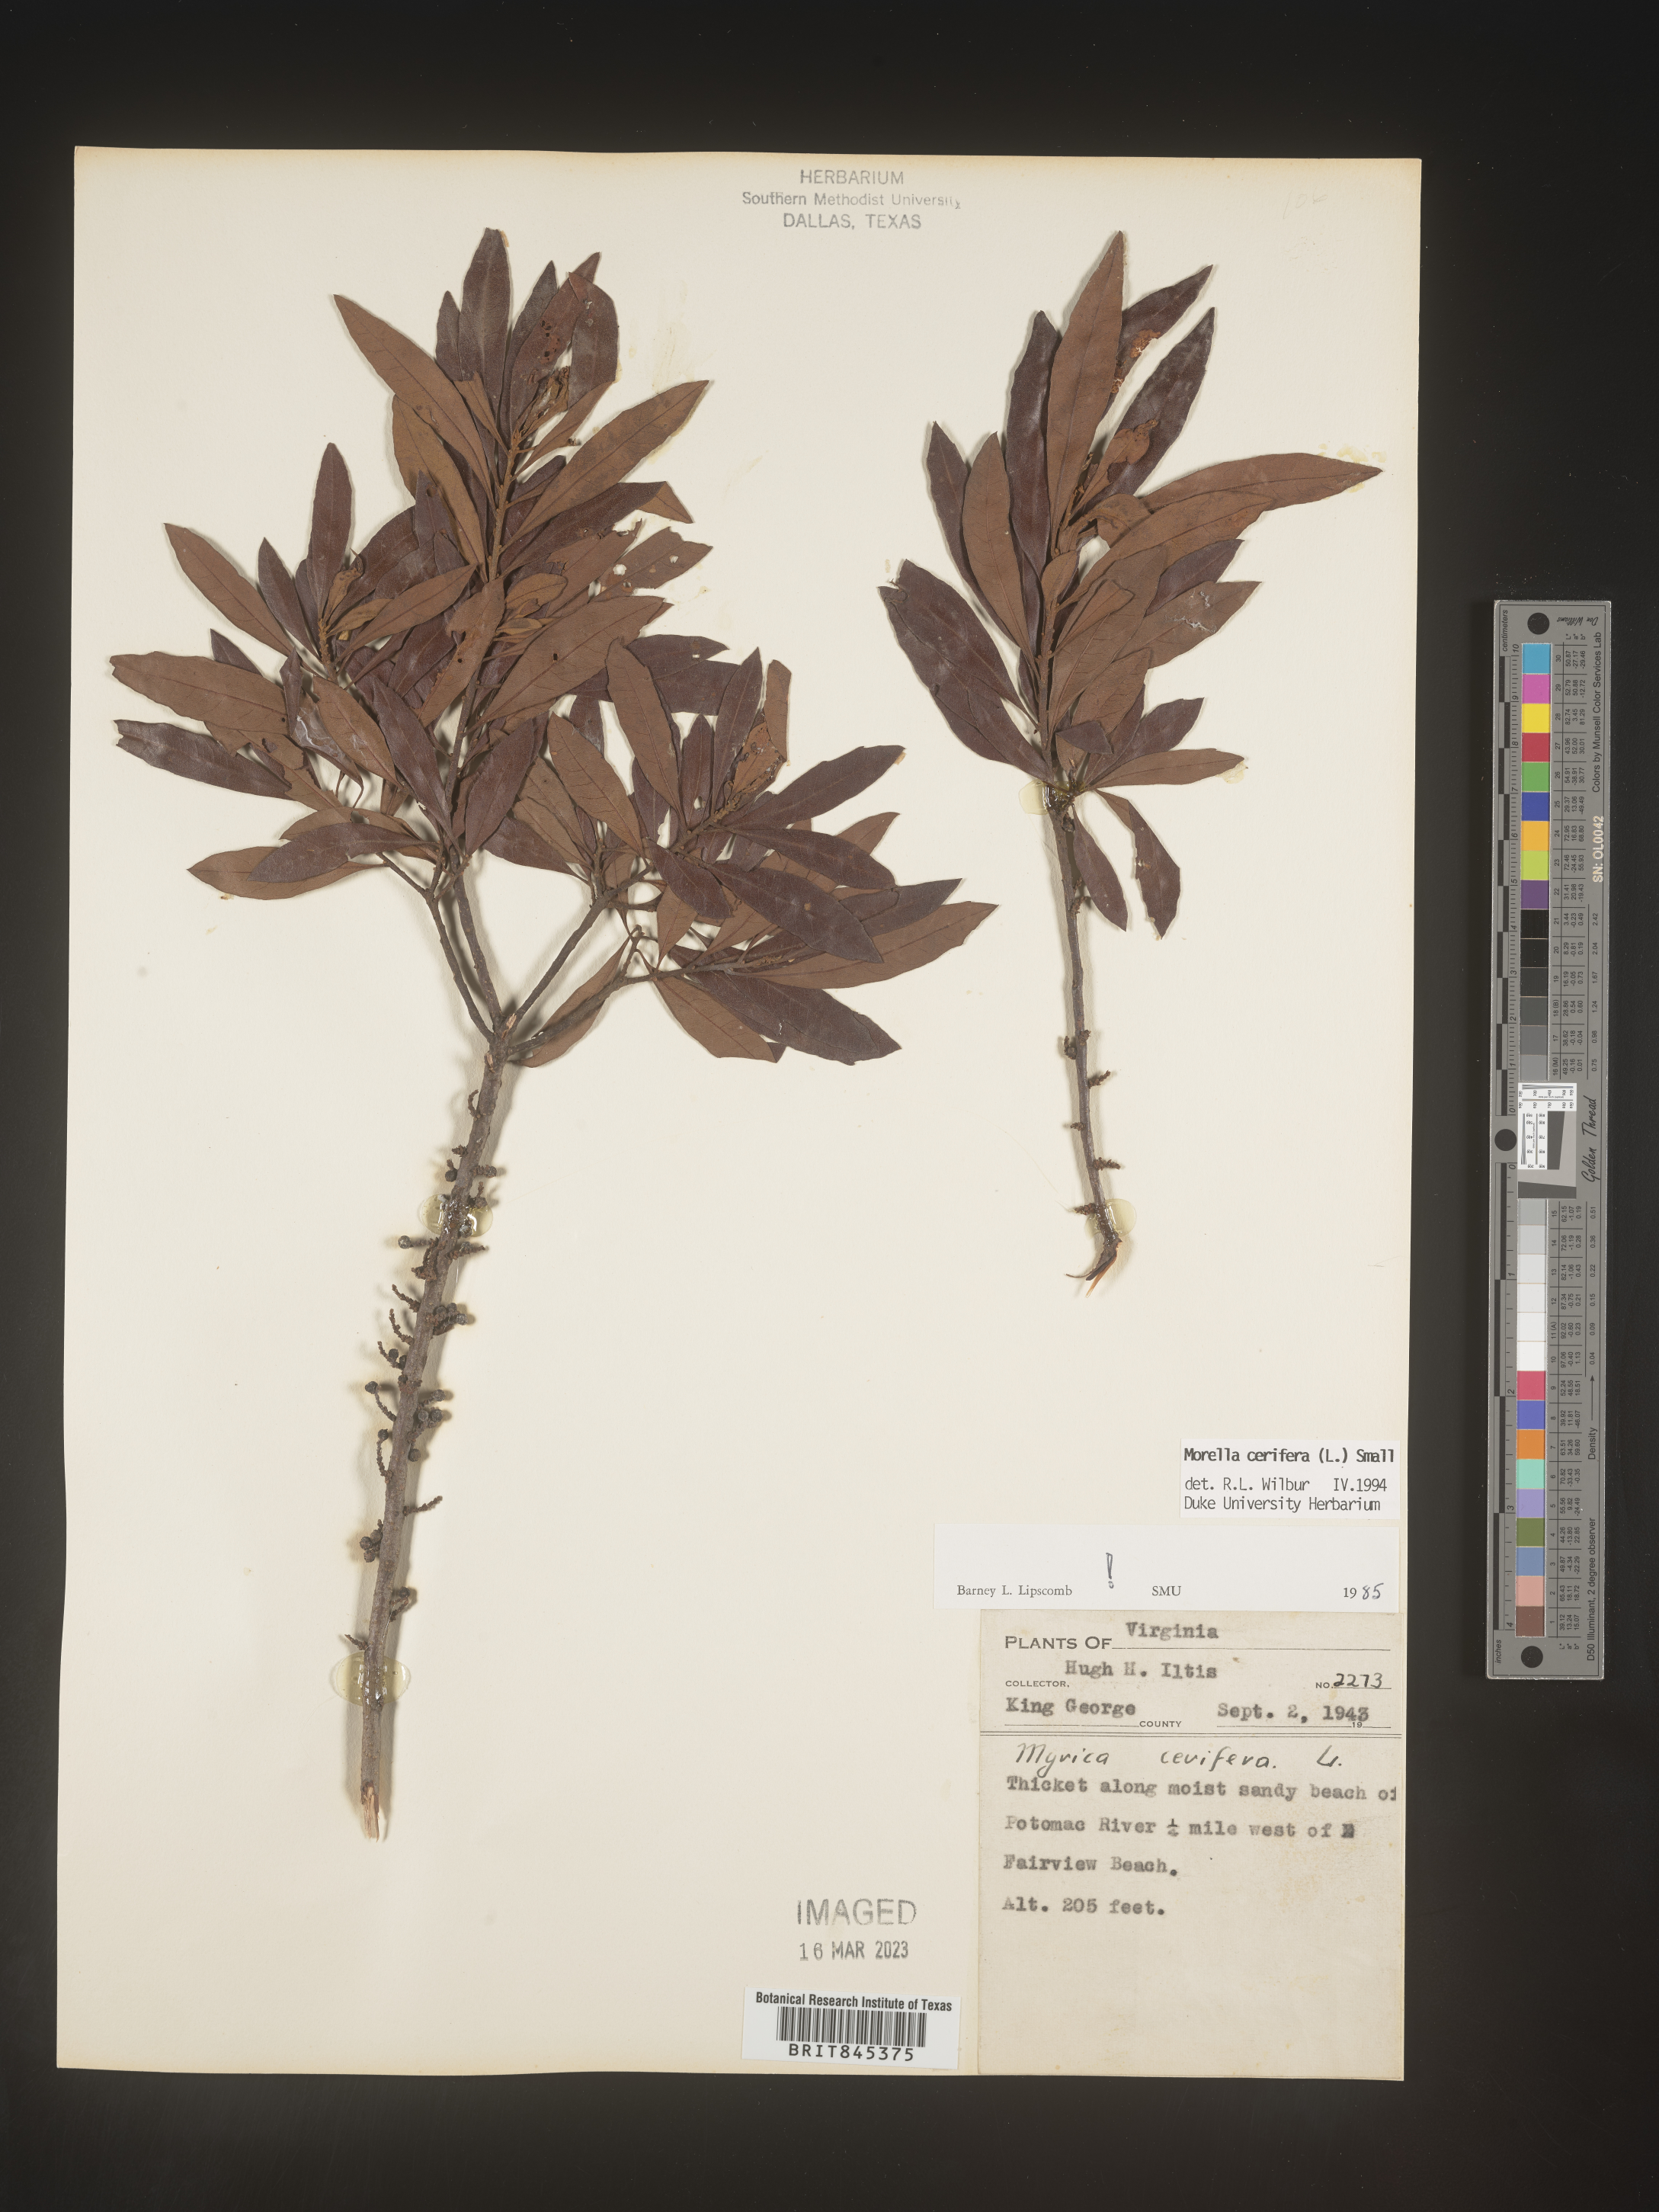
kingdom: Plantae
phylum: Tracheophyta
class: Magnoliopsida
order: Fagales
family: Myricaceae
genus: Morella
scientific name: Morella cerifera
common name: Wax myrtle
